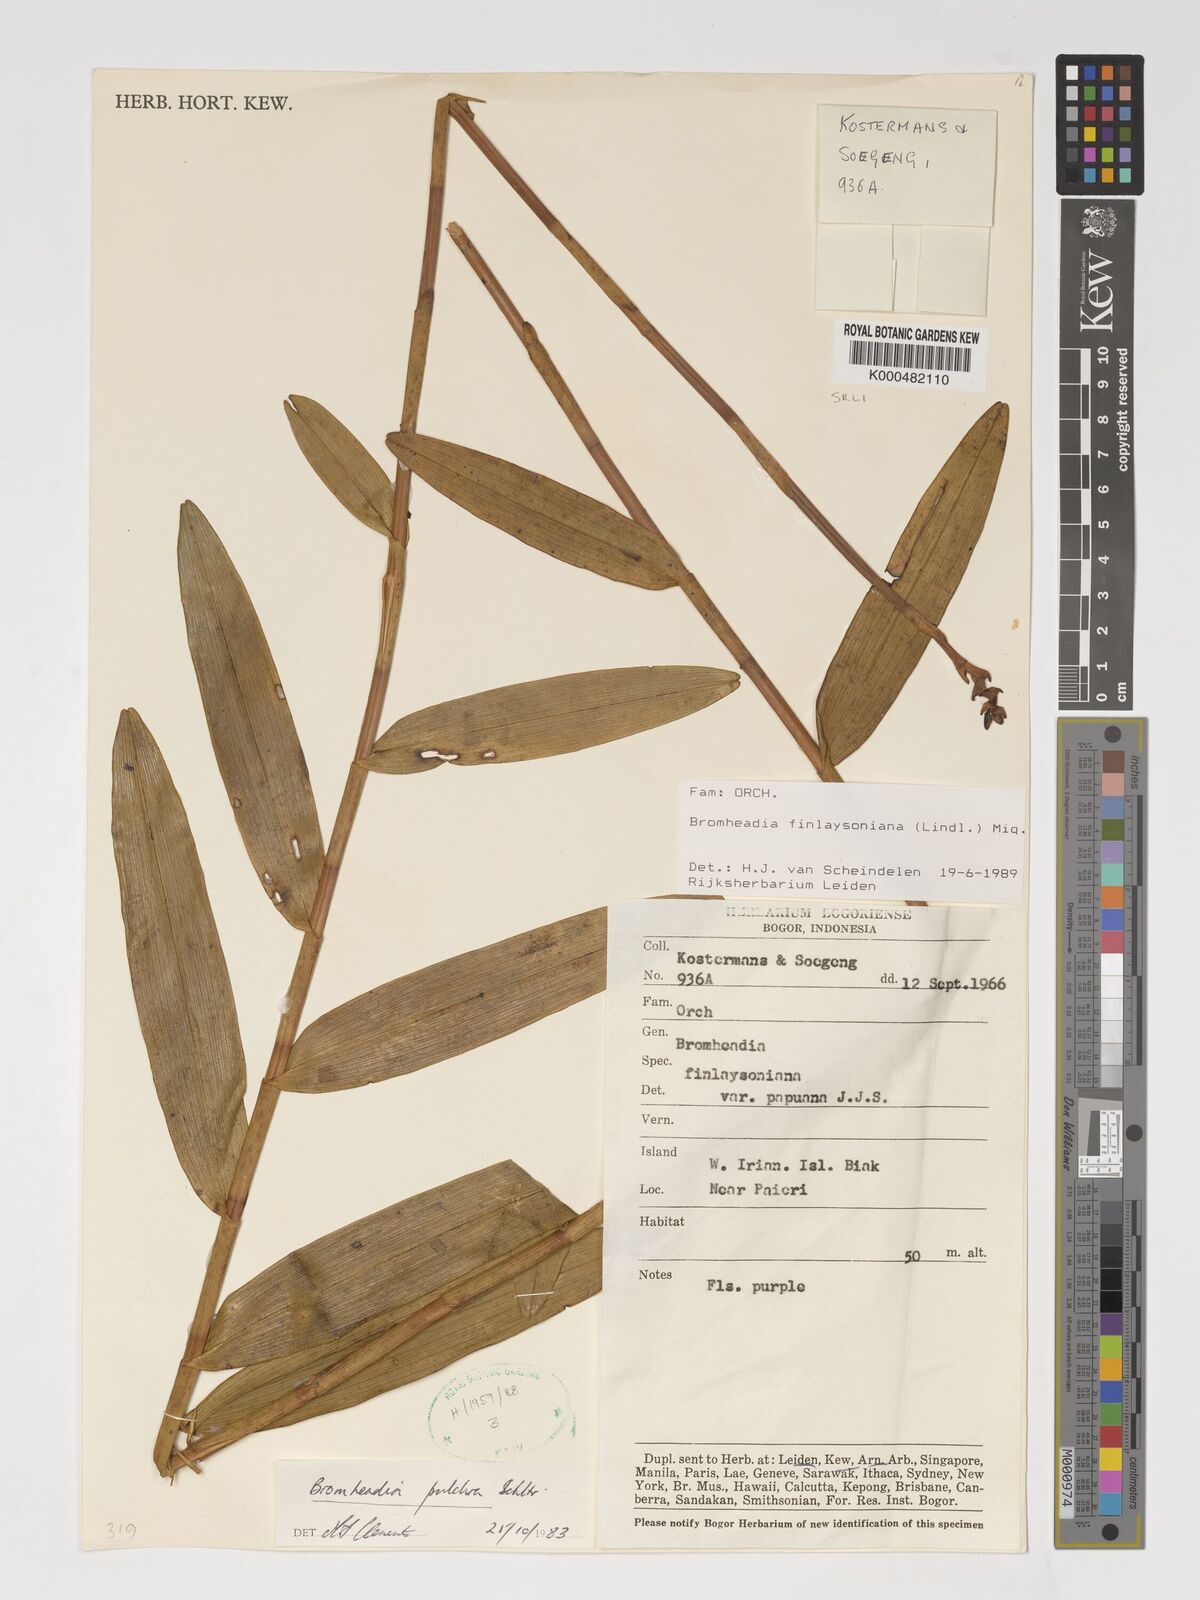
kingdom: Plantae
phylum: Tracheophyta
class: Liliopsida
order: Asparagales
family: Orchidaceae
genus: Bromheadia
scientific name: Bromheadia finlaysoniana
